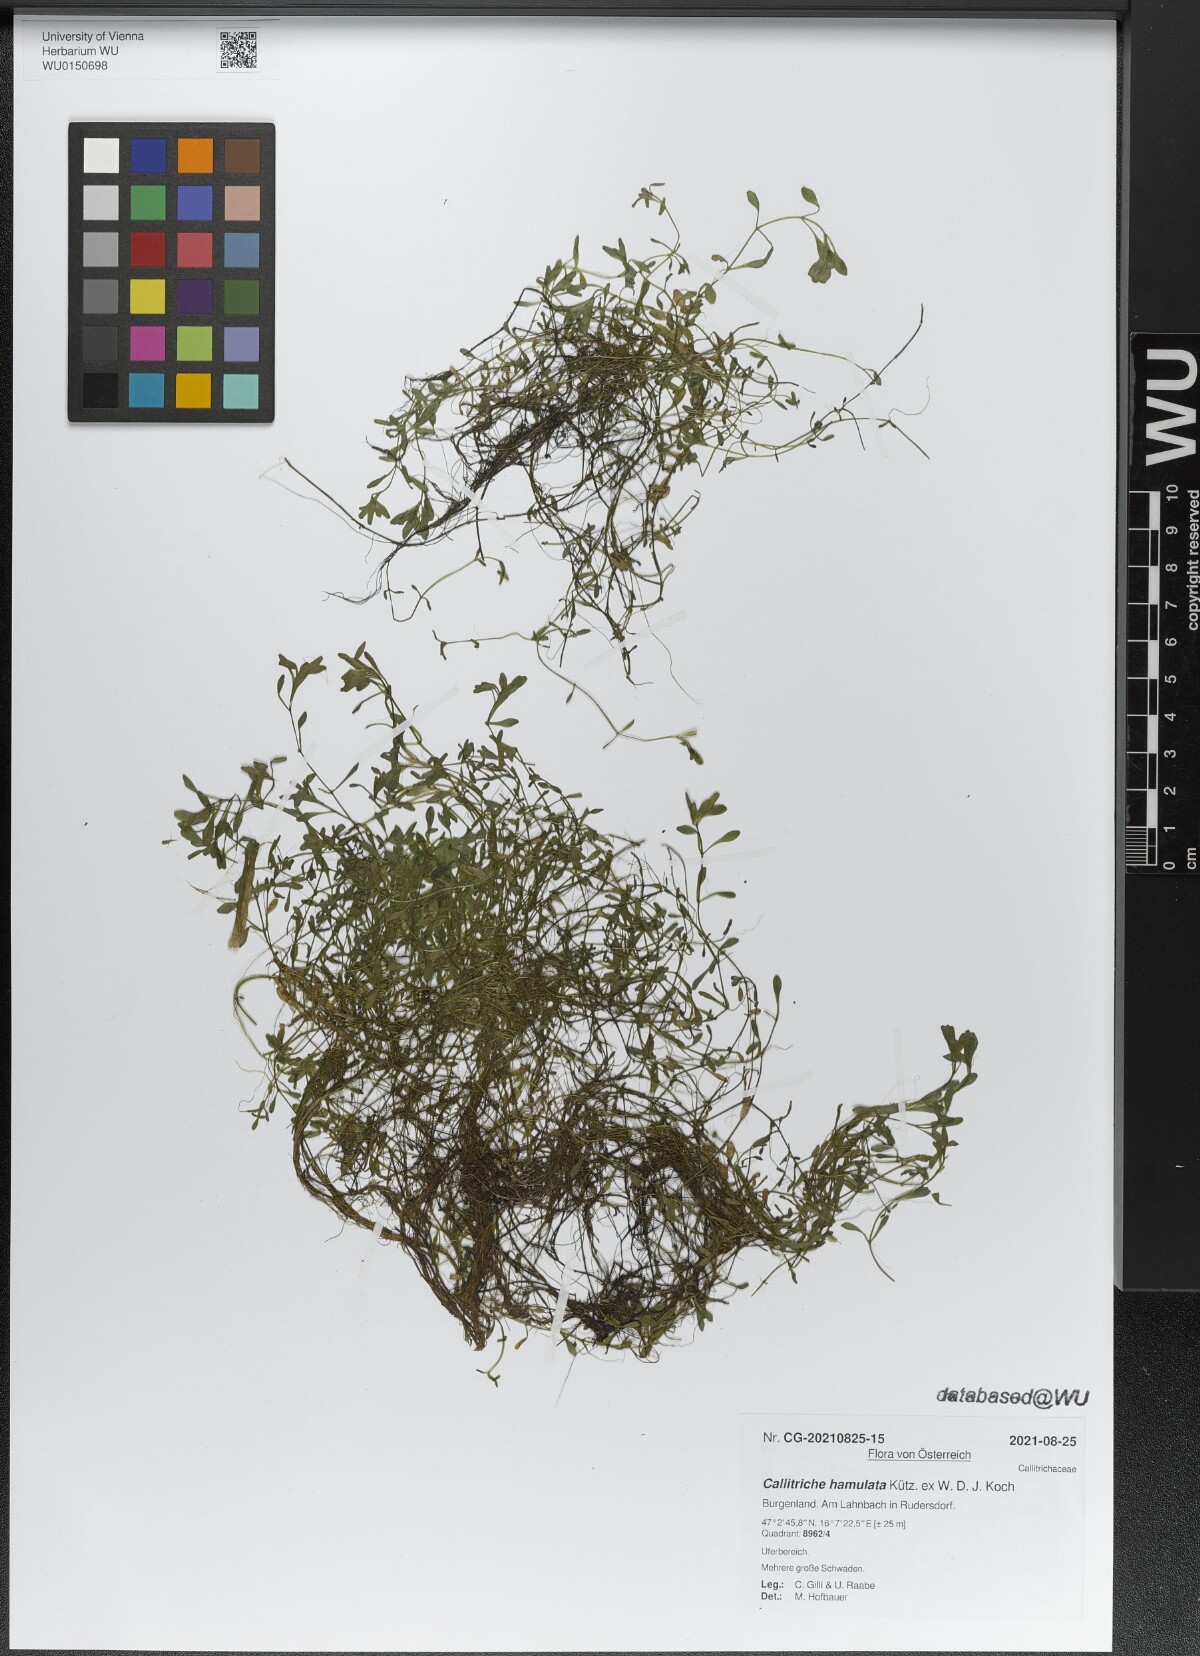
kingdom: Plantae
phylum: Tracheophyta
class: Magnoliopsida
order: Lamiales
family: Plantaginaceae
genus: Callitriche
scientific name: Callitriche hamulata
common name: Intermediate water-starwort
